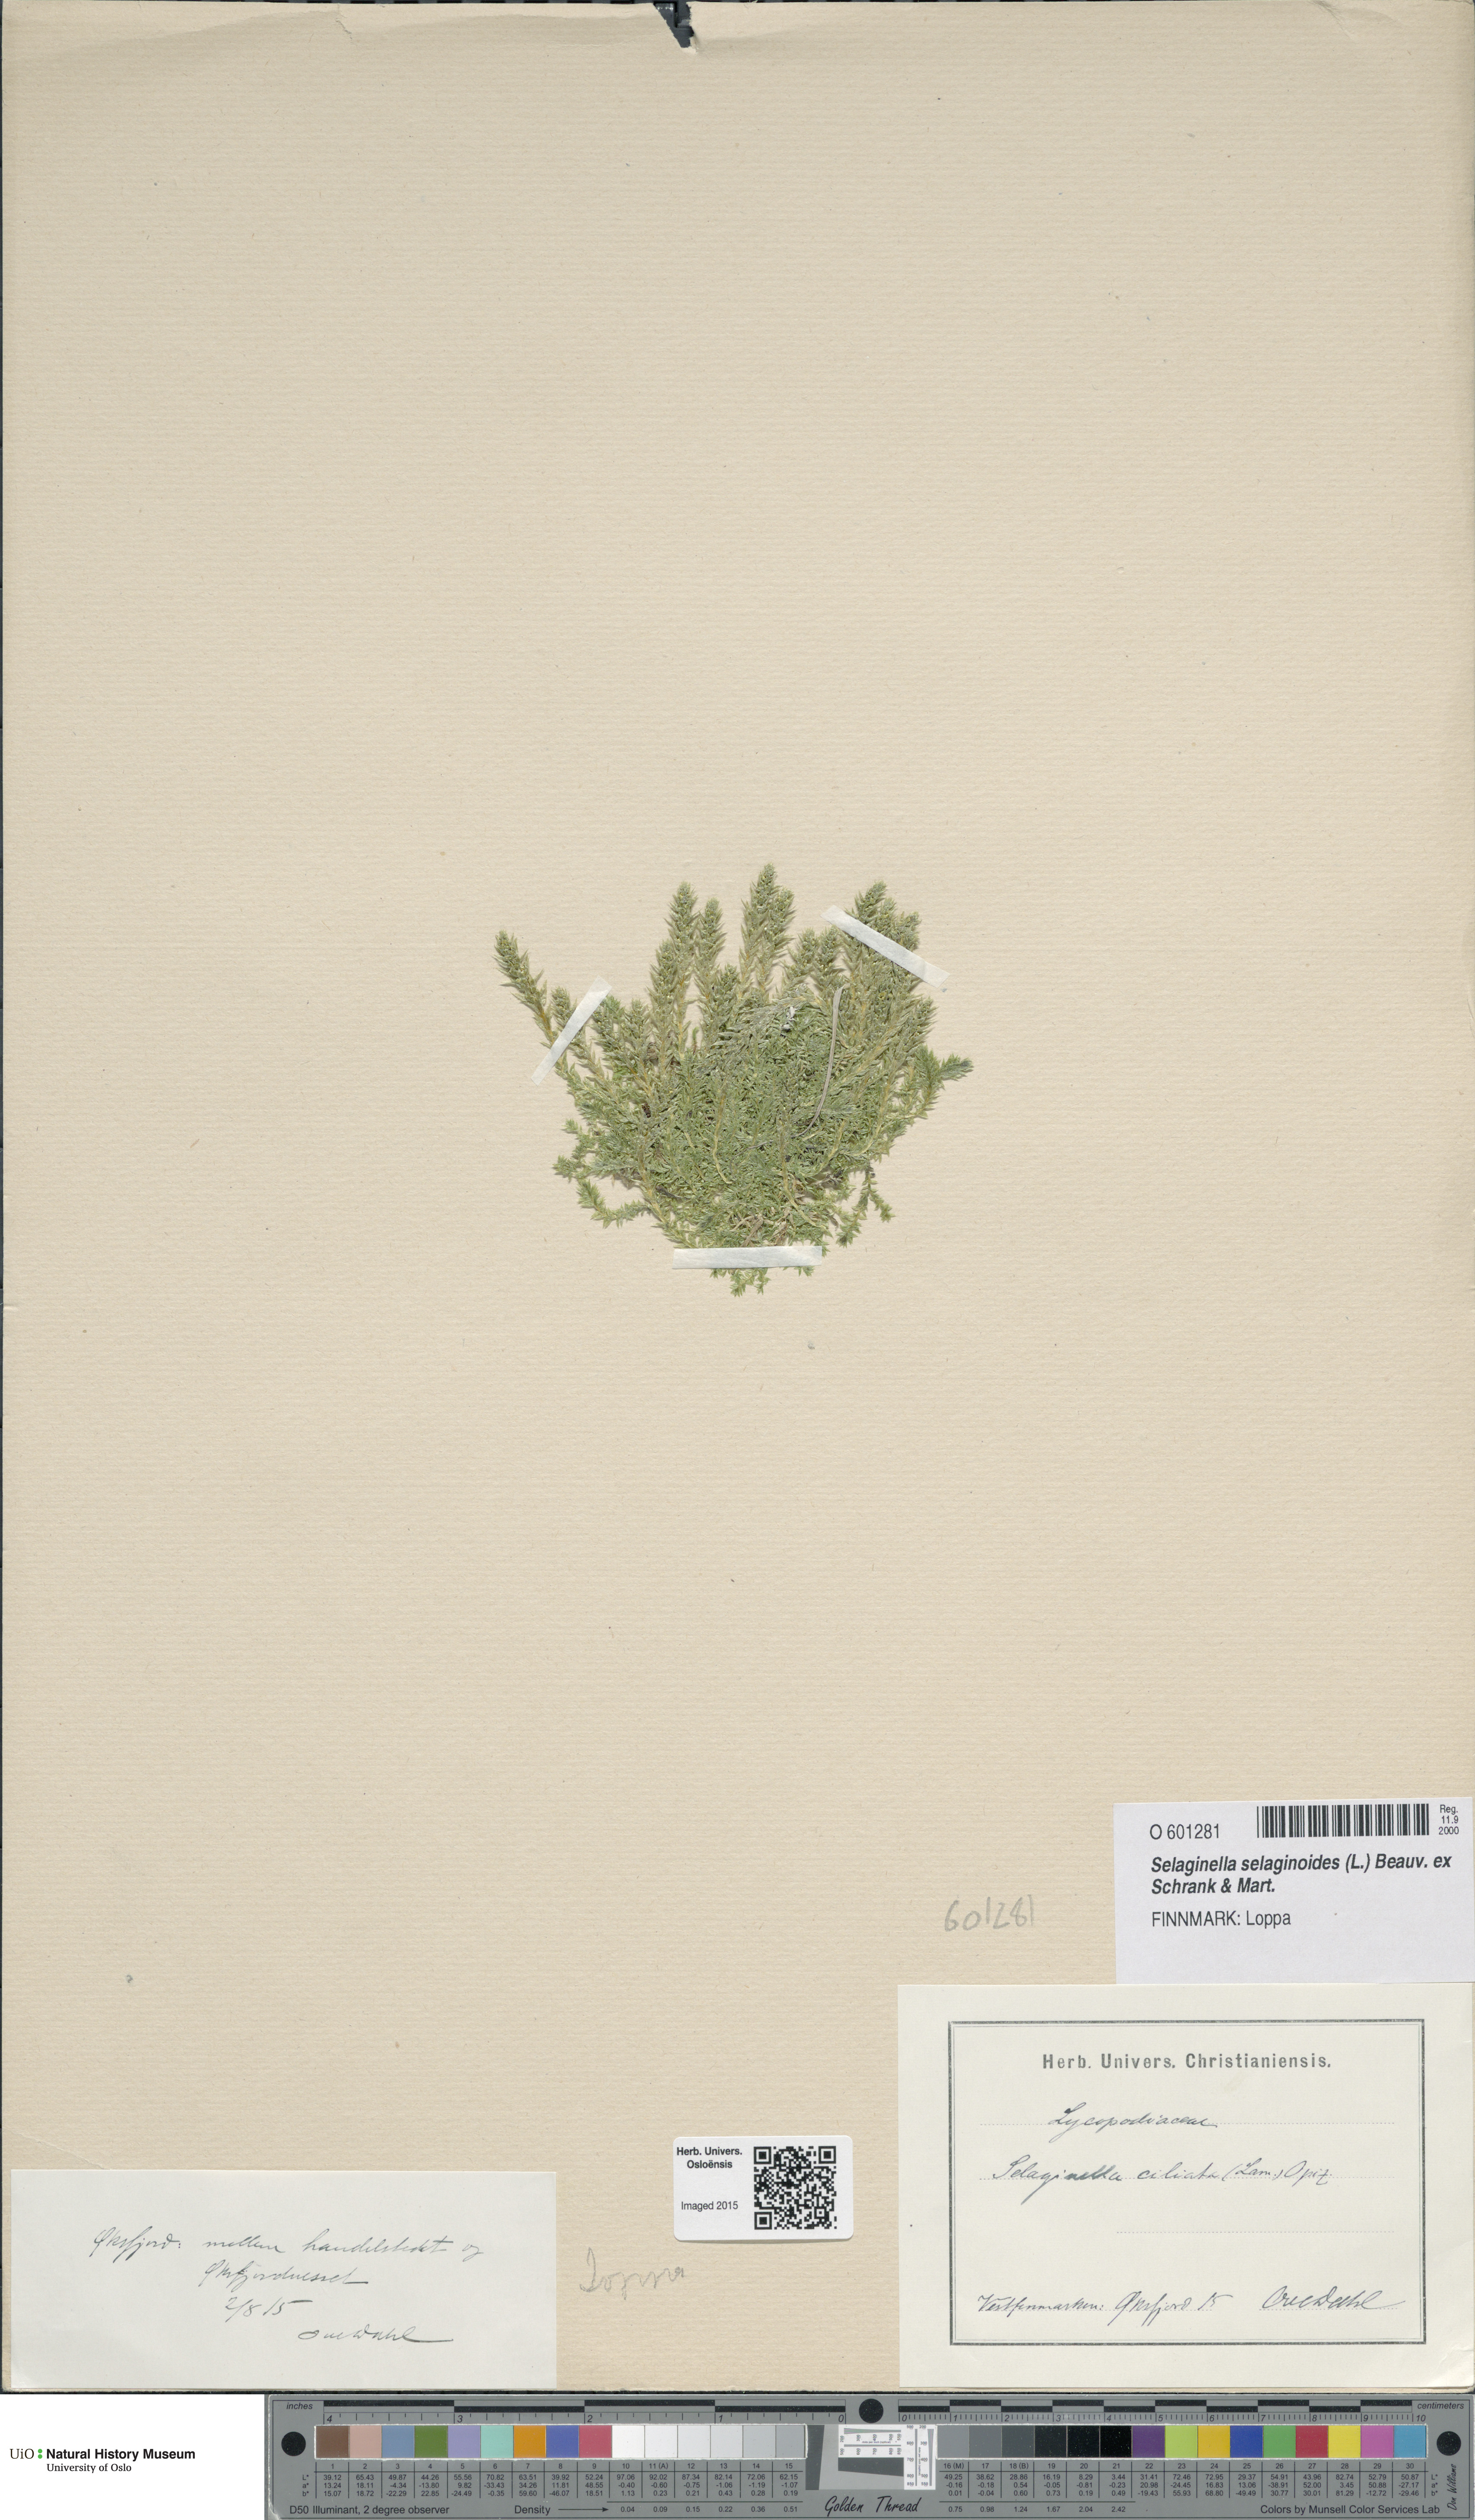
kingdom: Plantae
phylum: Tracheophyta
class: Lycopodiopsida
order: Selaginellales
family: Selaginellaceae
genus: Selaginella
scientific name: Selaginella selaginoides
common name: Prickly mountain-moss
